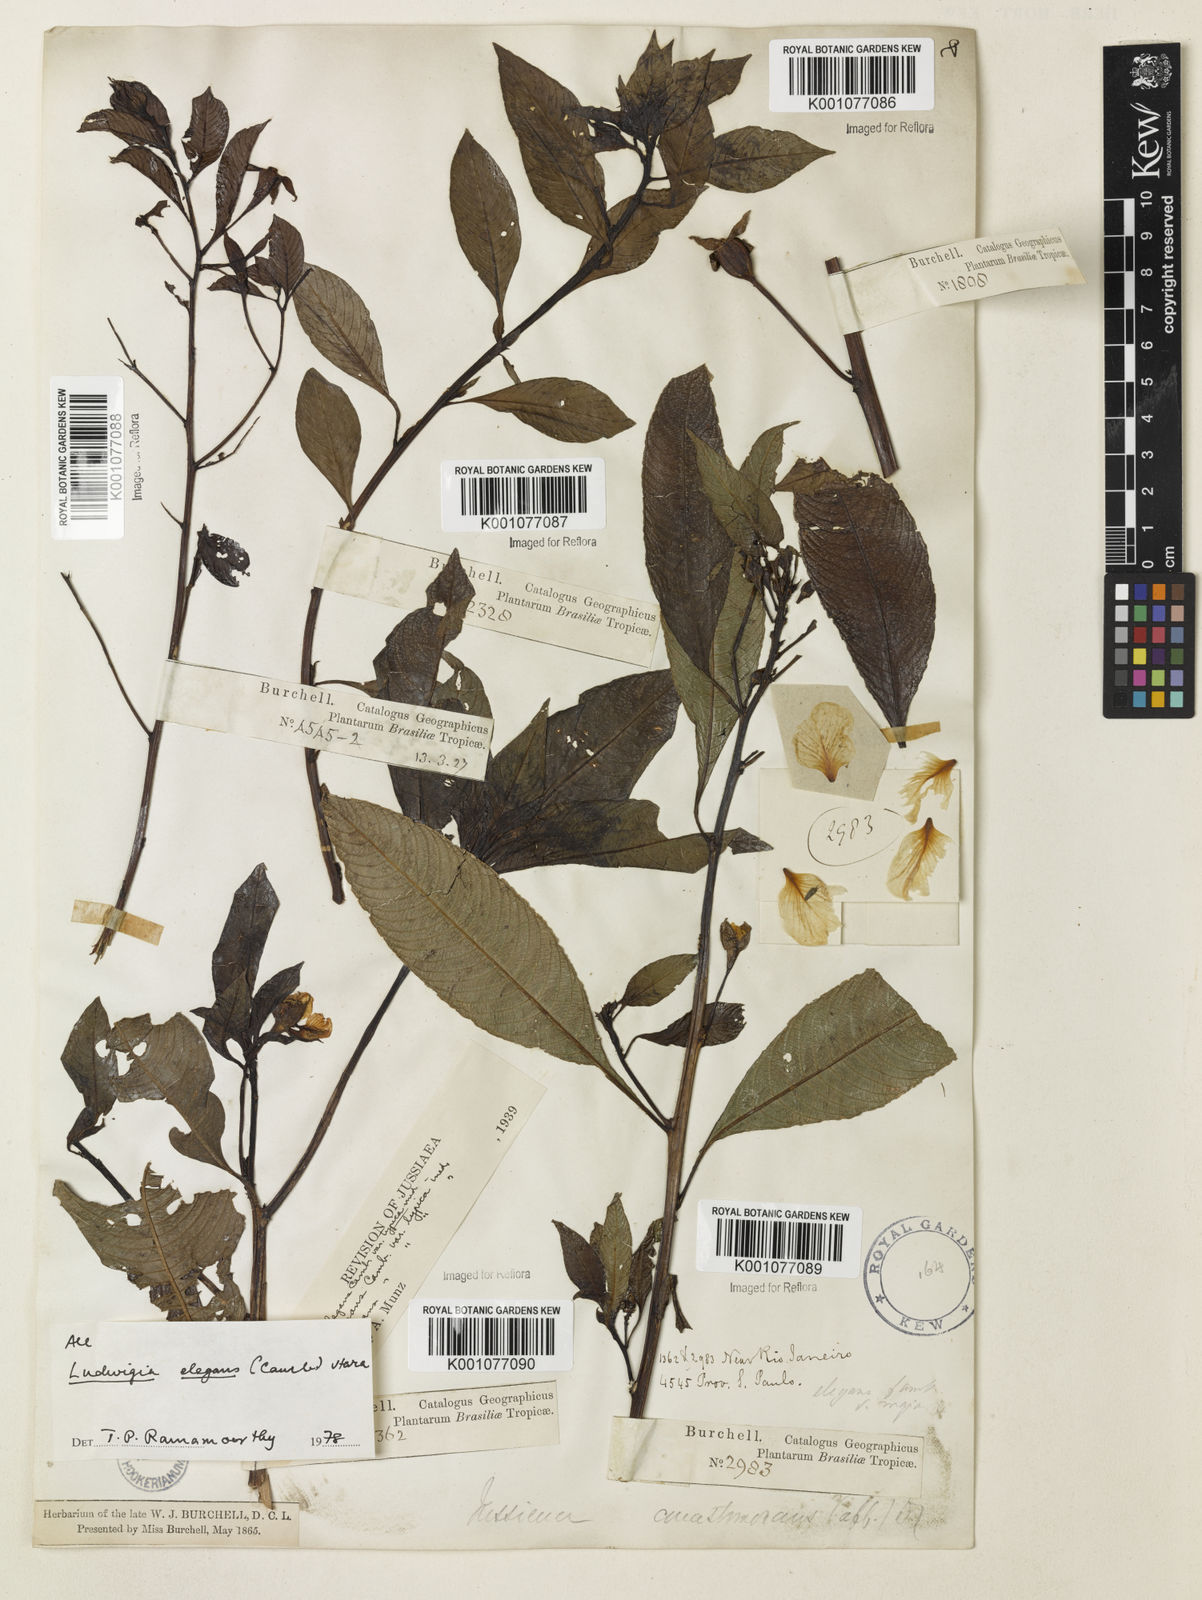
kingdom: Plantae
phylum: Tracheophyta
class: Magnoliopsida
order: Myrtales
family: Onagraceae
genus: Ludwigia
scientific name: Ludwigia elegans
